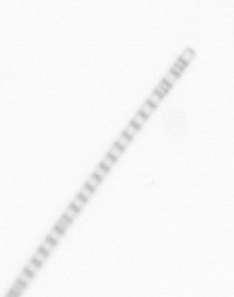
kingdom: Chromista
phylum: Ochrophyta
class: Bacillariophyceae
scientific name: Bacillariophyceae
